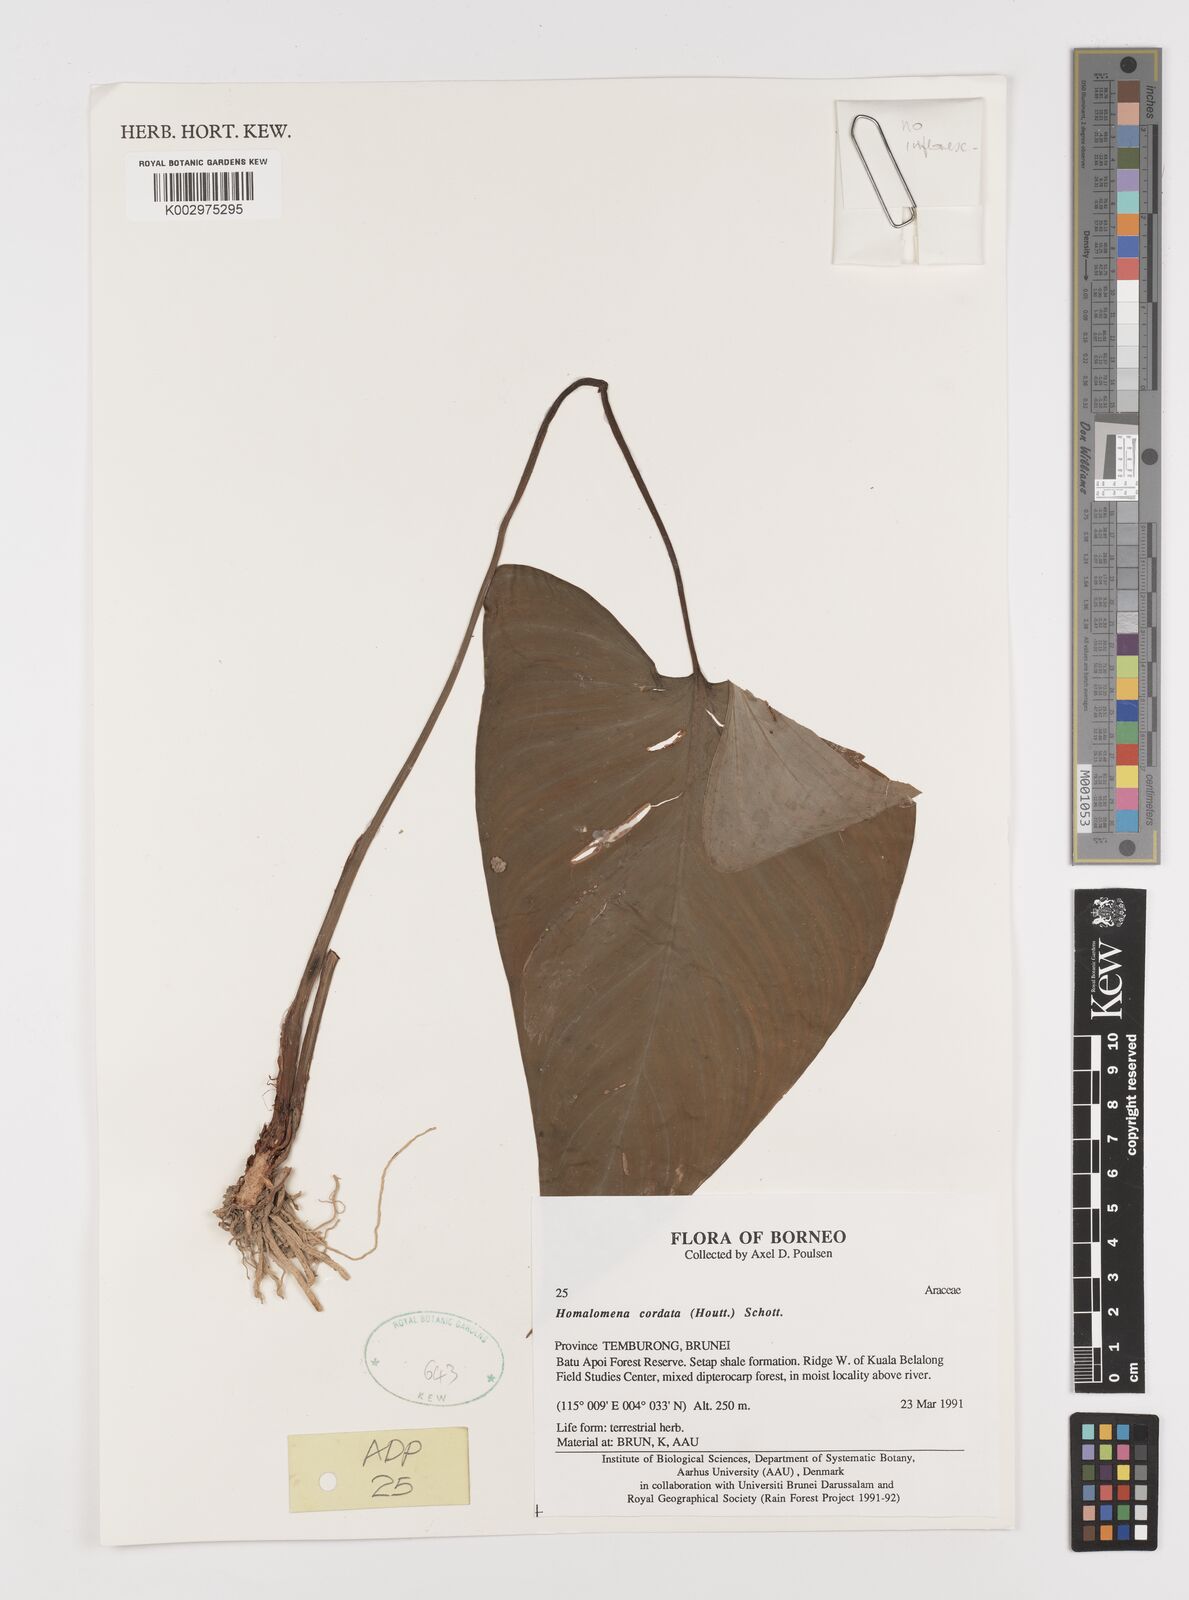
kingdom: Plantae
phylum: Tracheophyta
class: Liliopsida
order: Alismatales
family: Araceae
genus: Homalomena
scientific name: Homalomena cordata
